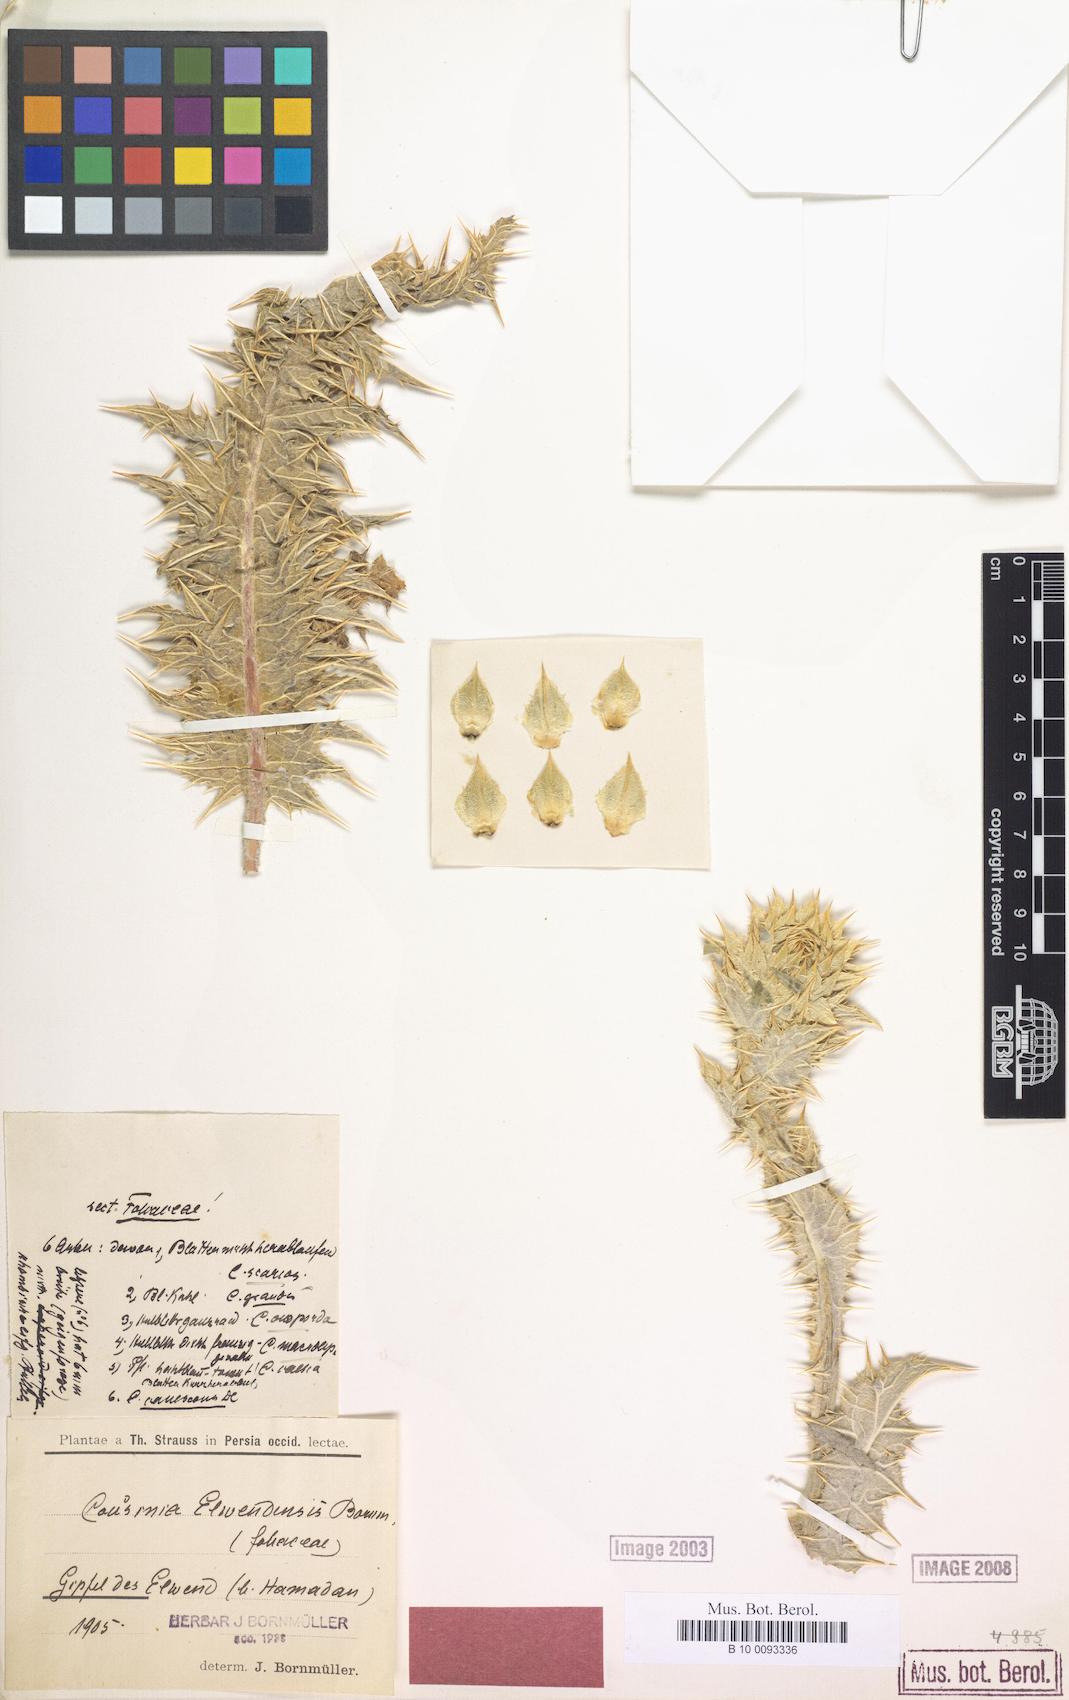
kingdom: Plantae
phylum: Tracheophyta
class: Magnoliopsida
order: Asterales
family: Asteraceae
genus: Cousinia
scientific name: Cousinia elwendensis
